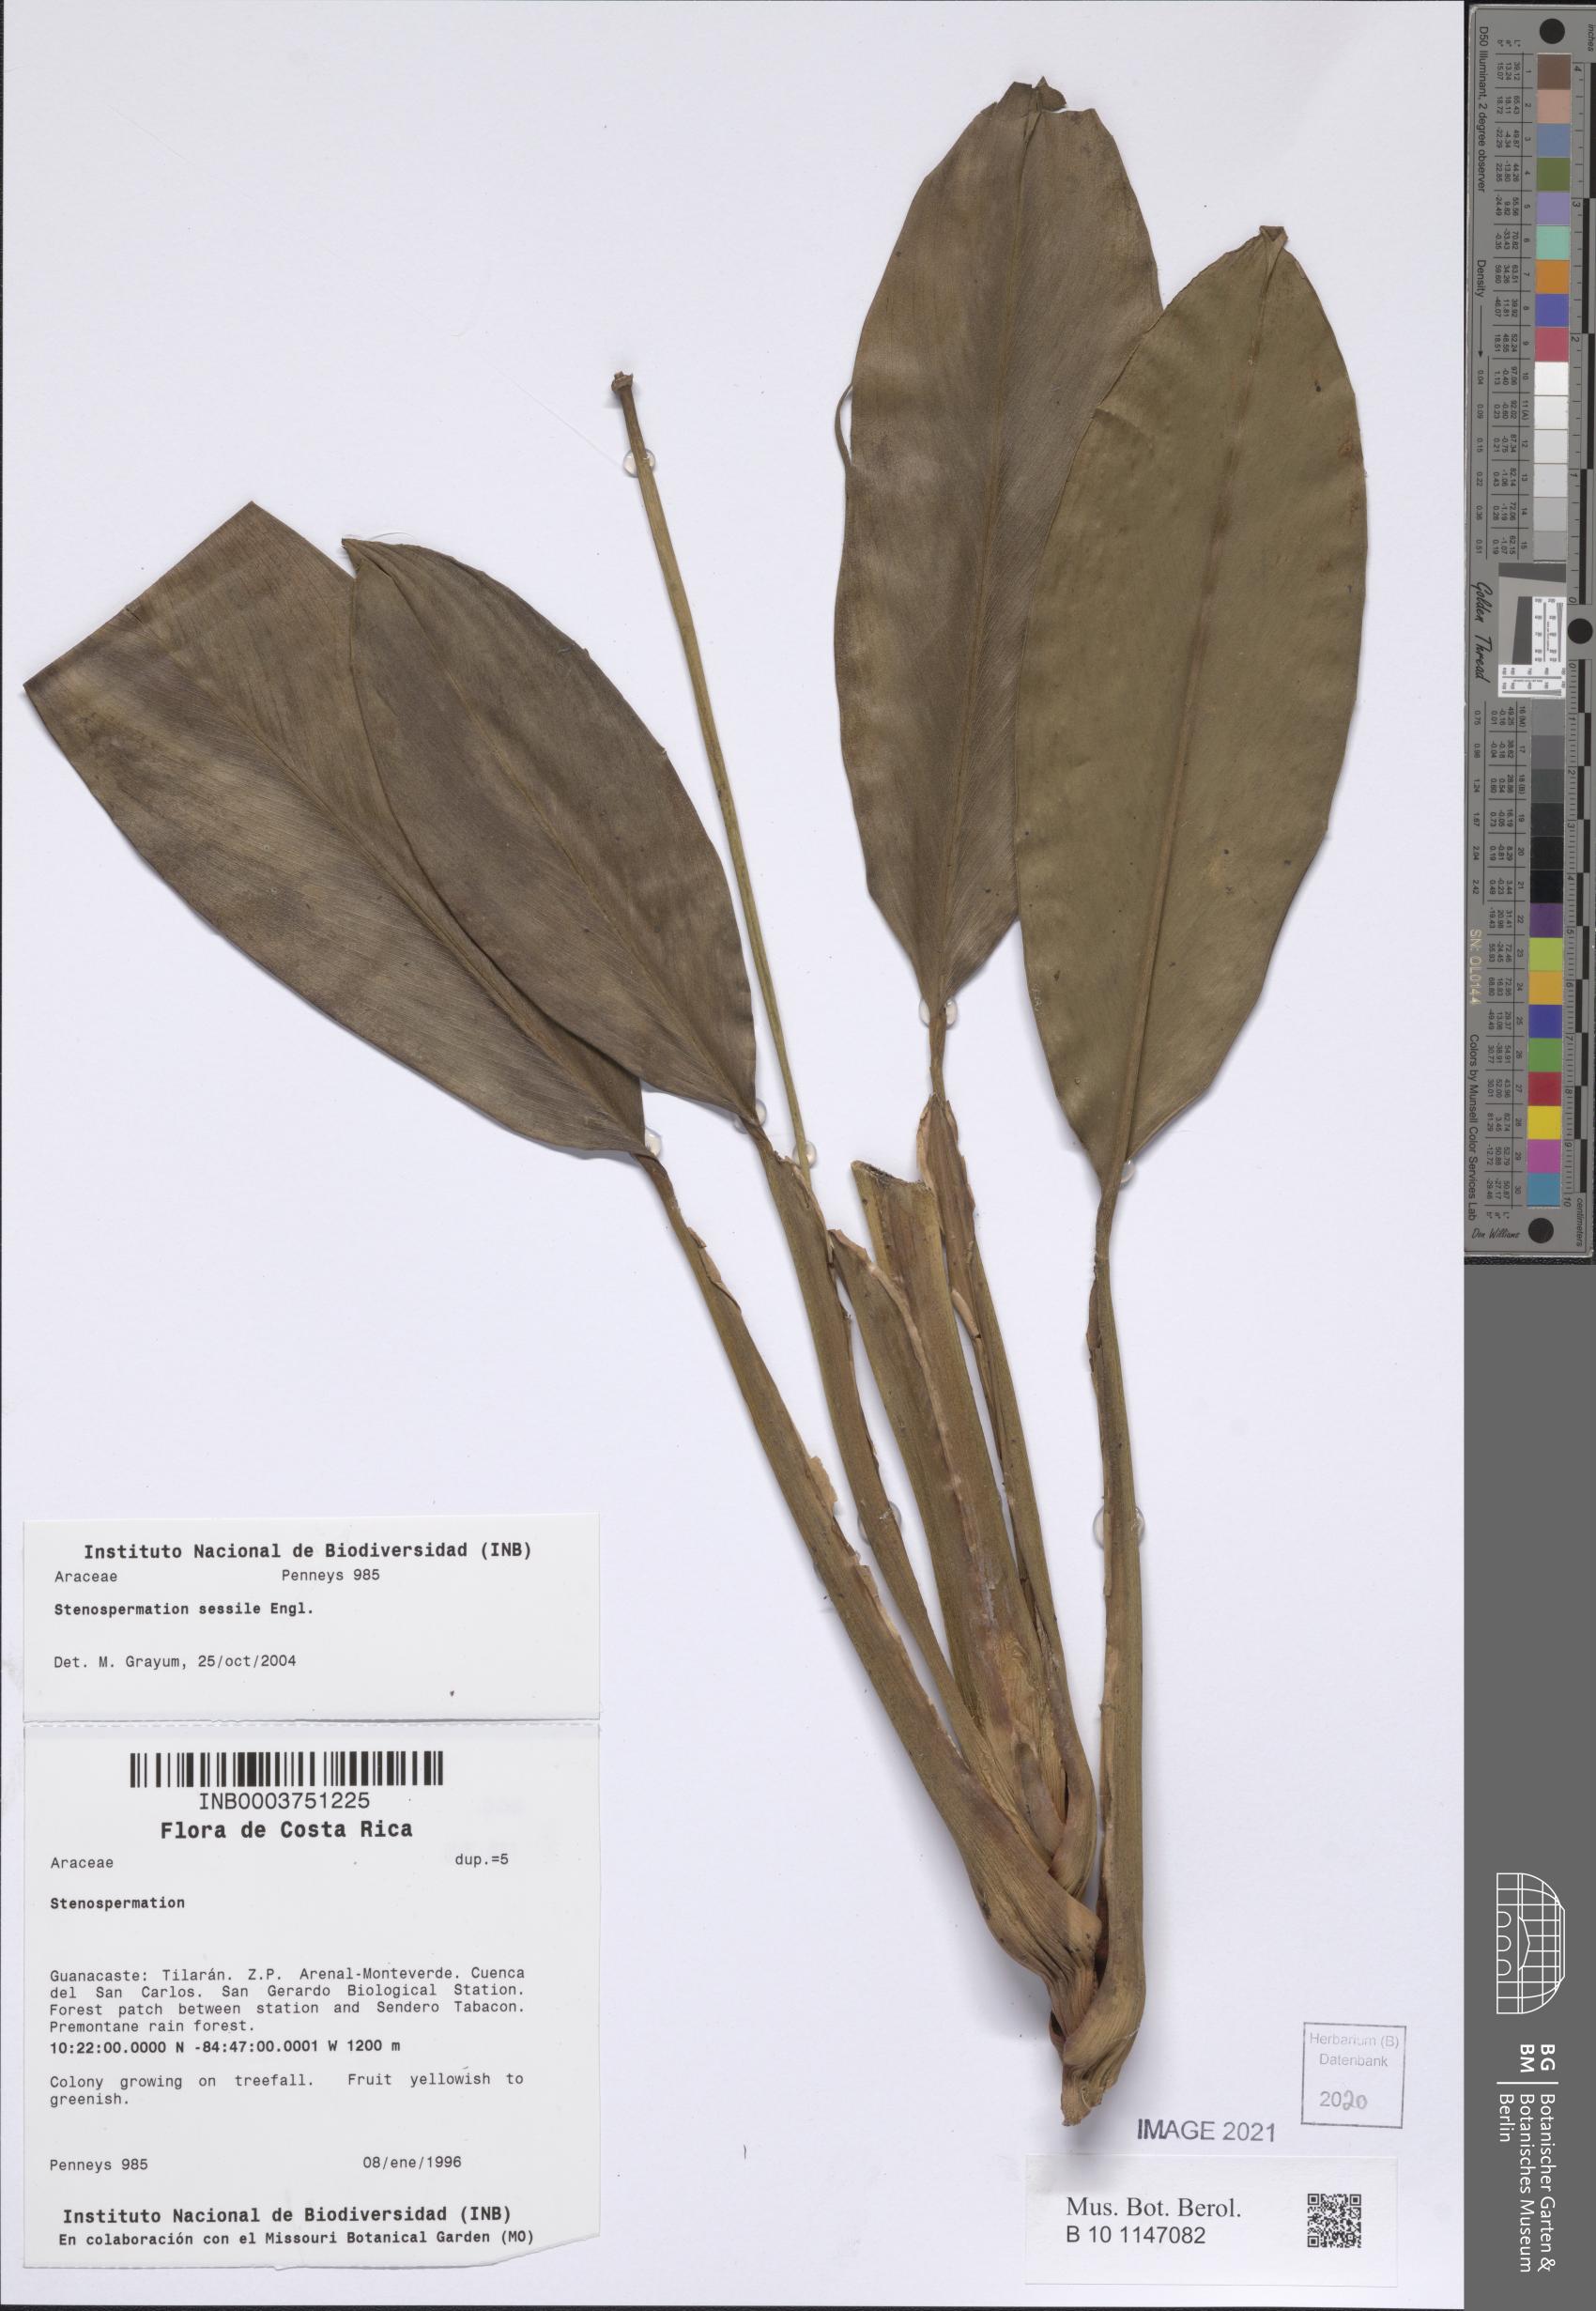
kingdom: Plantae
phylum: Tracheophyta
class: Liliopsida
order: Alismatales
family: Araceae
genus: Stenospermation
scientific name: Stenospermation sessile
